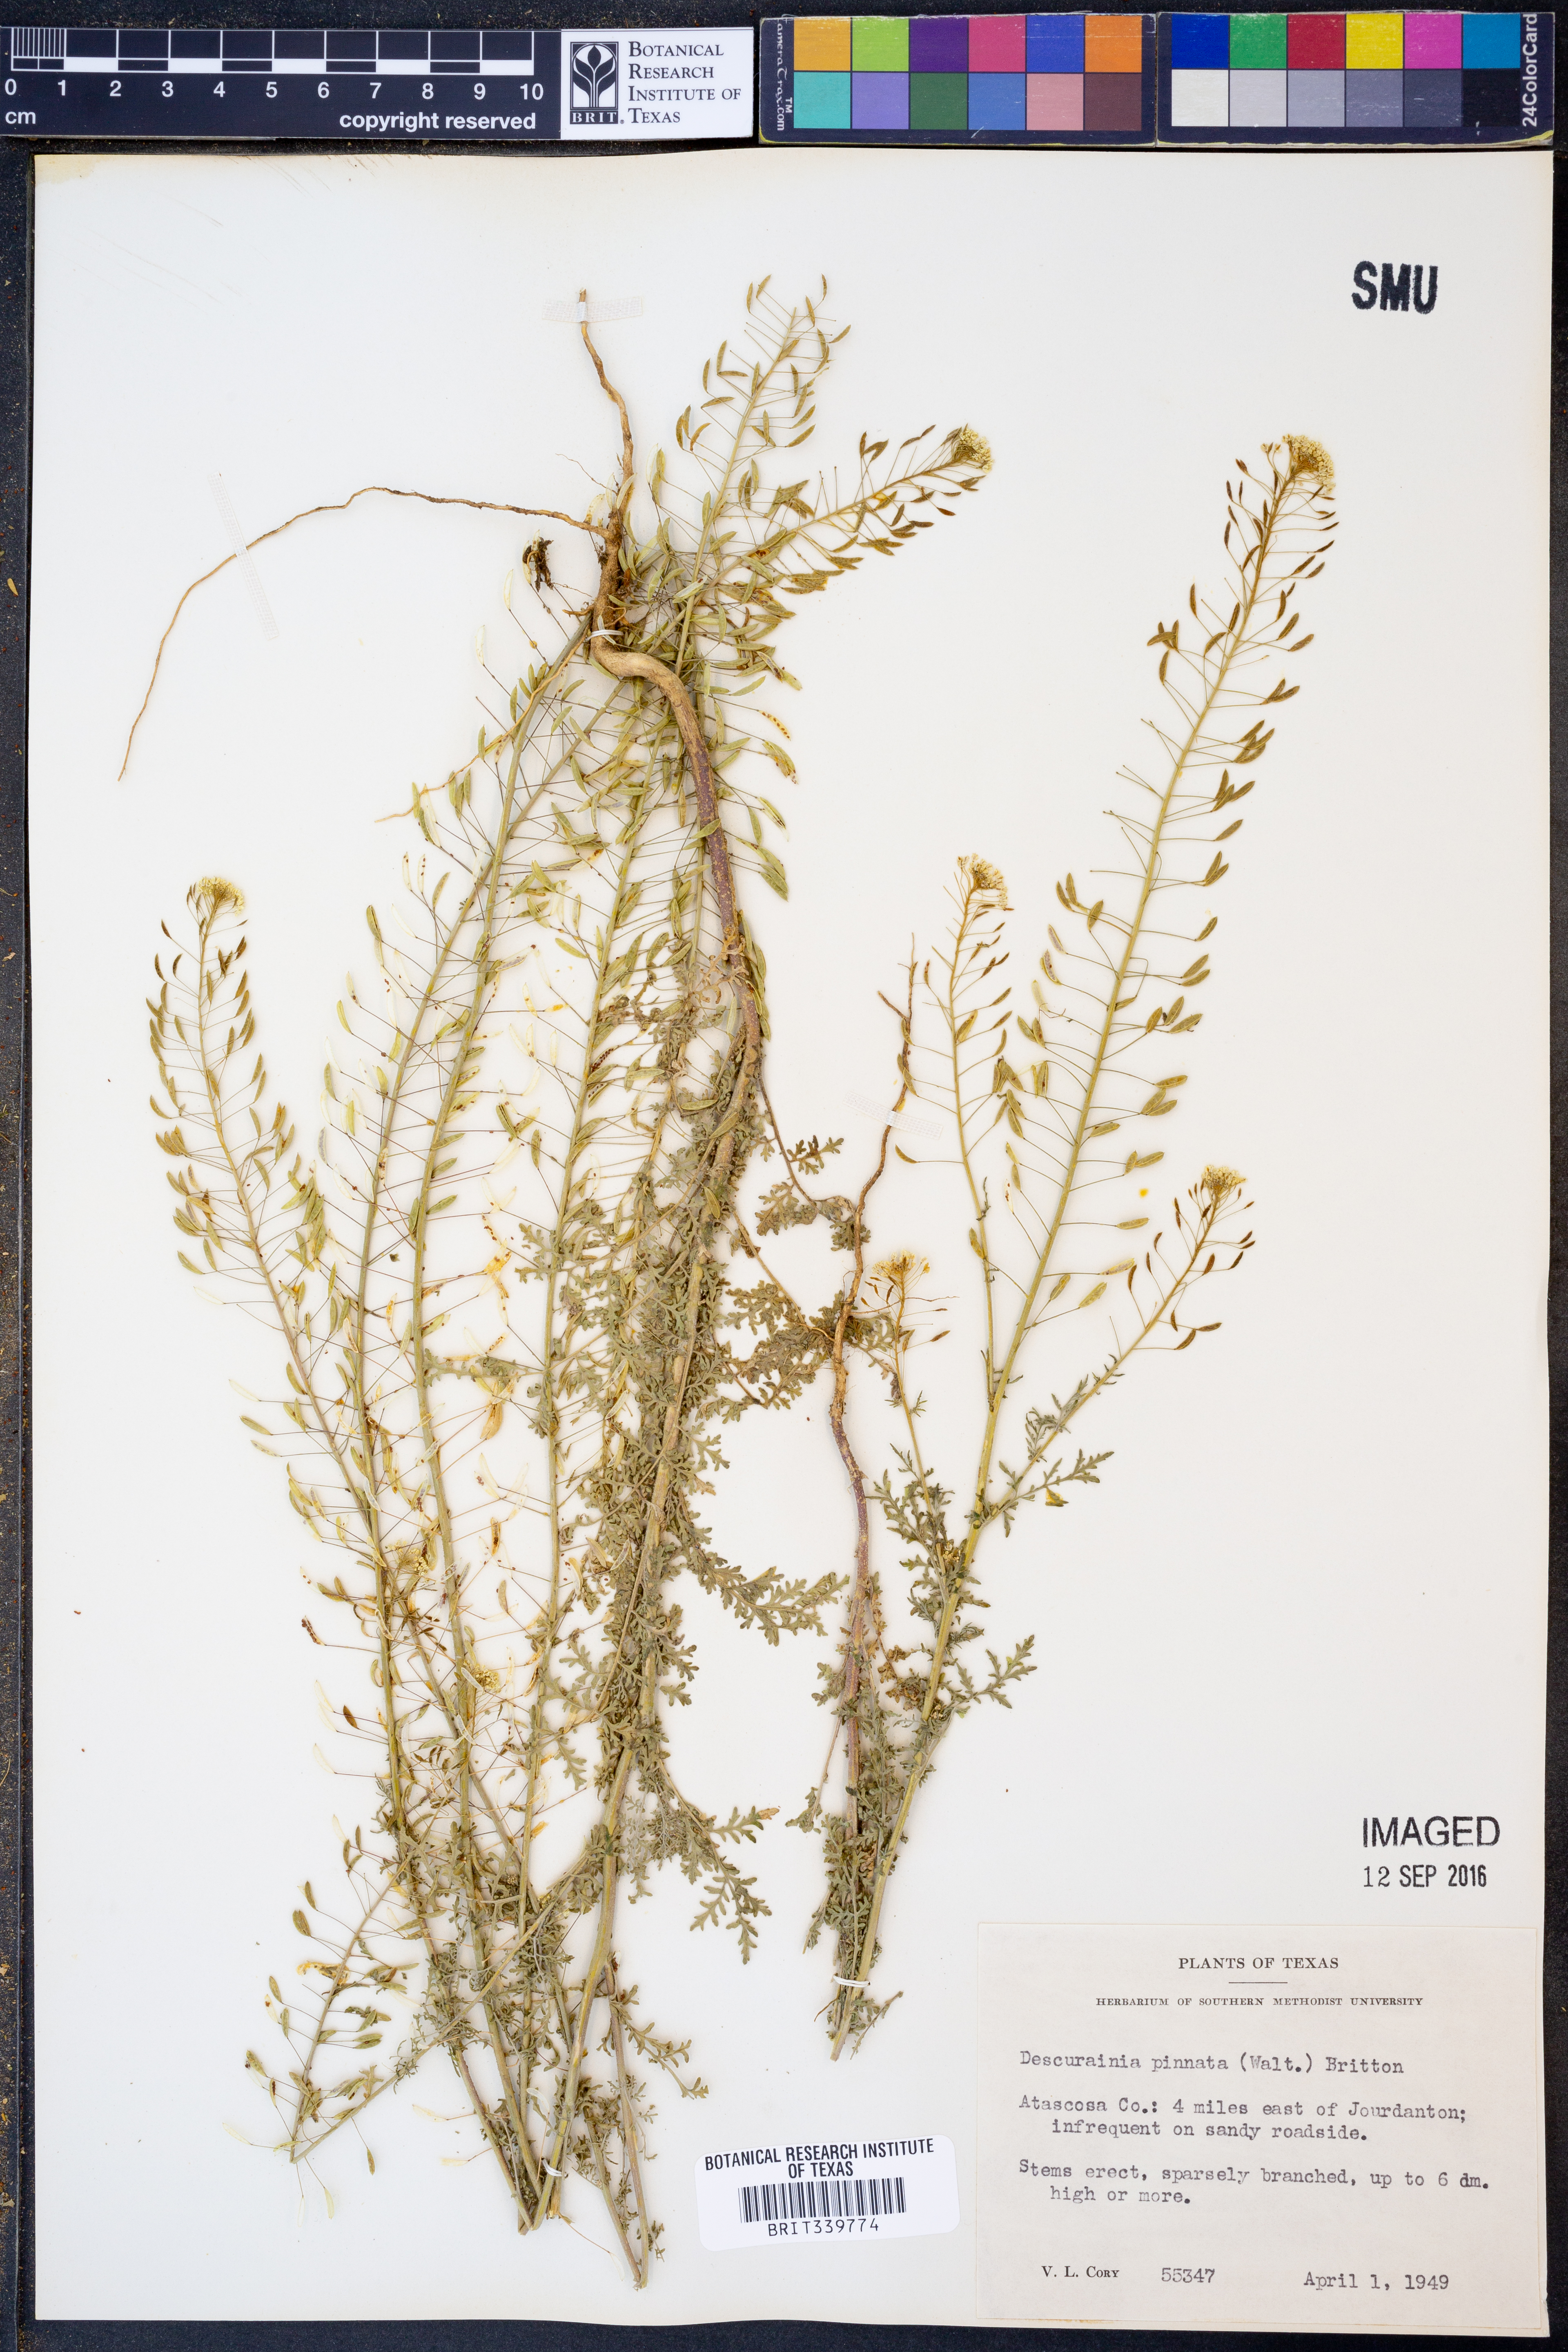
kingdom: Plantae
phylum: Tracheophyta
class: Magnoliopsida
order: Brassicales
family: Brassicaceae
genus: Descurainia
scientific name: Descurainia pinnata
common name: Western tansy mustard
